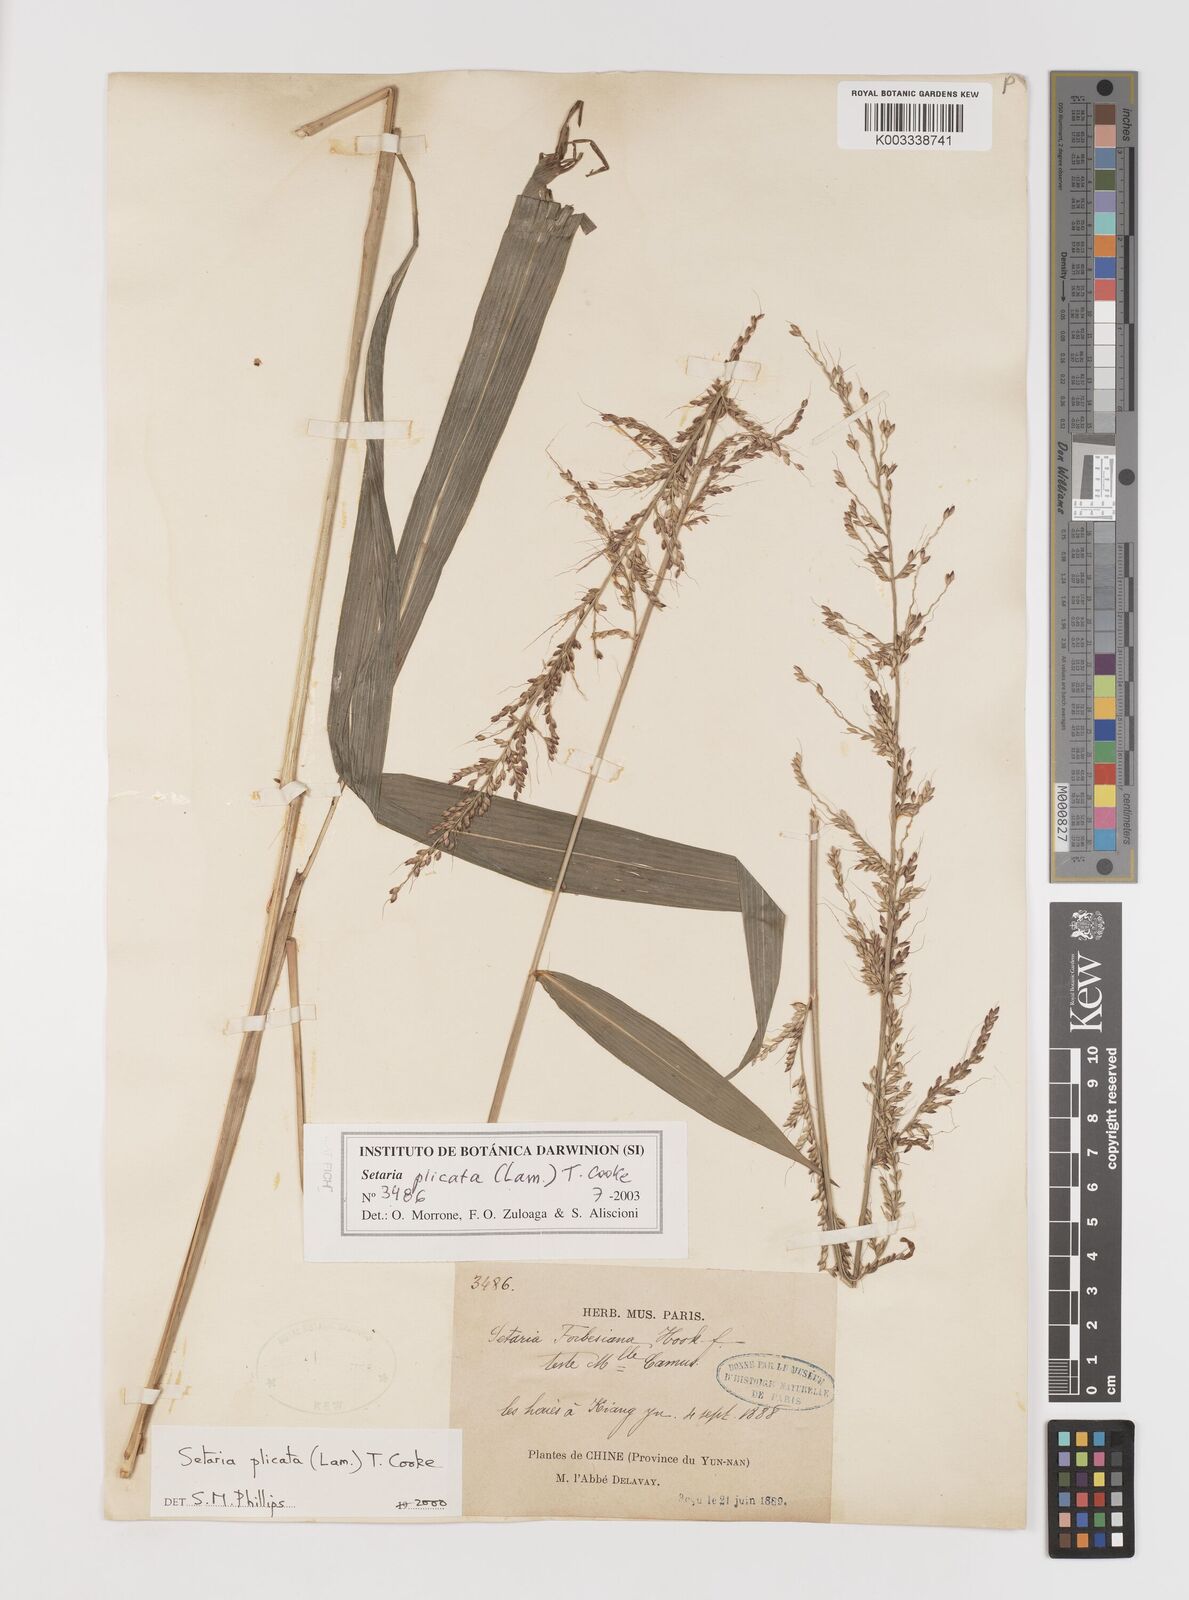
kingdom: Plantae
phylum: Tracheophyta
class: Liliopsida
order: Poales
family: Poaceae
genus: Setaria
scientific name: Setaria plicata
